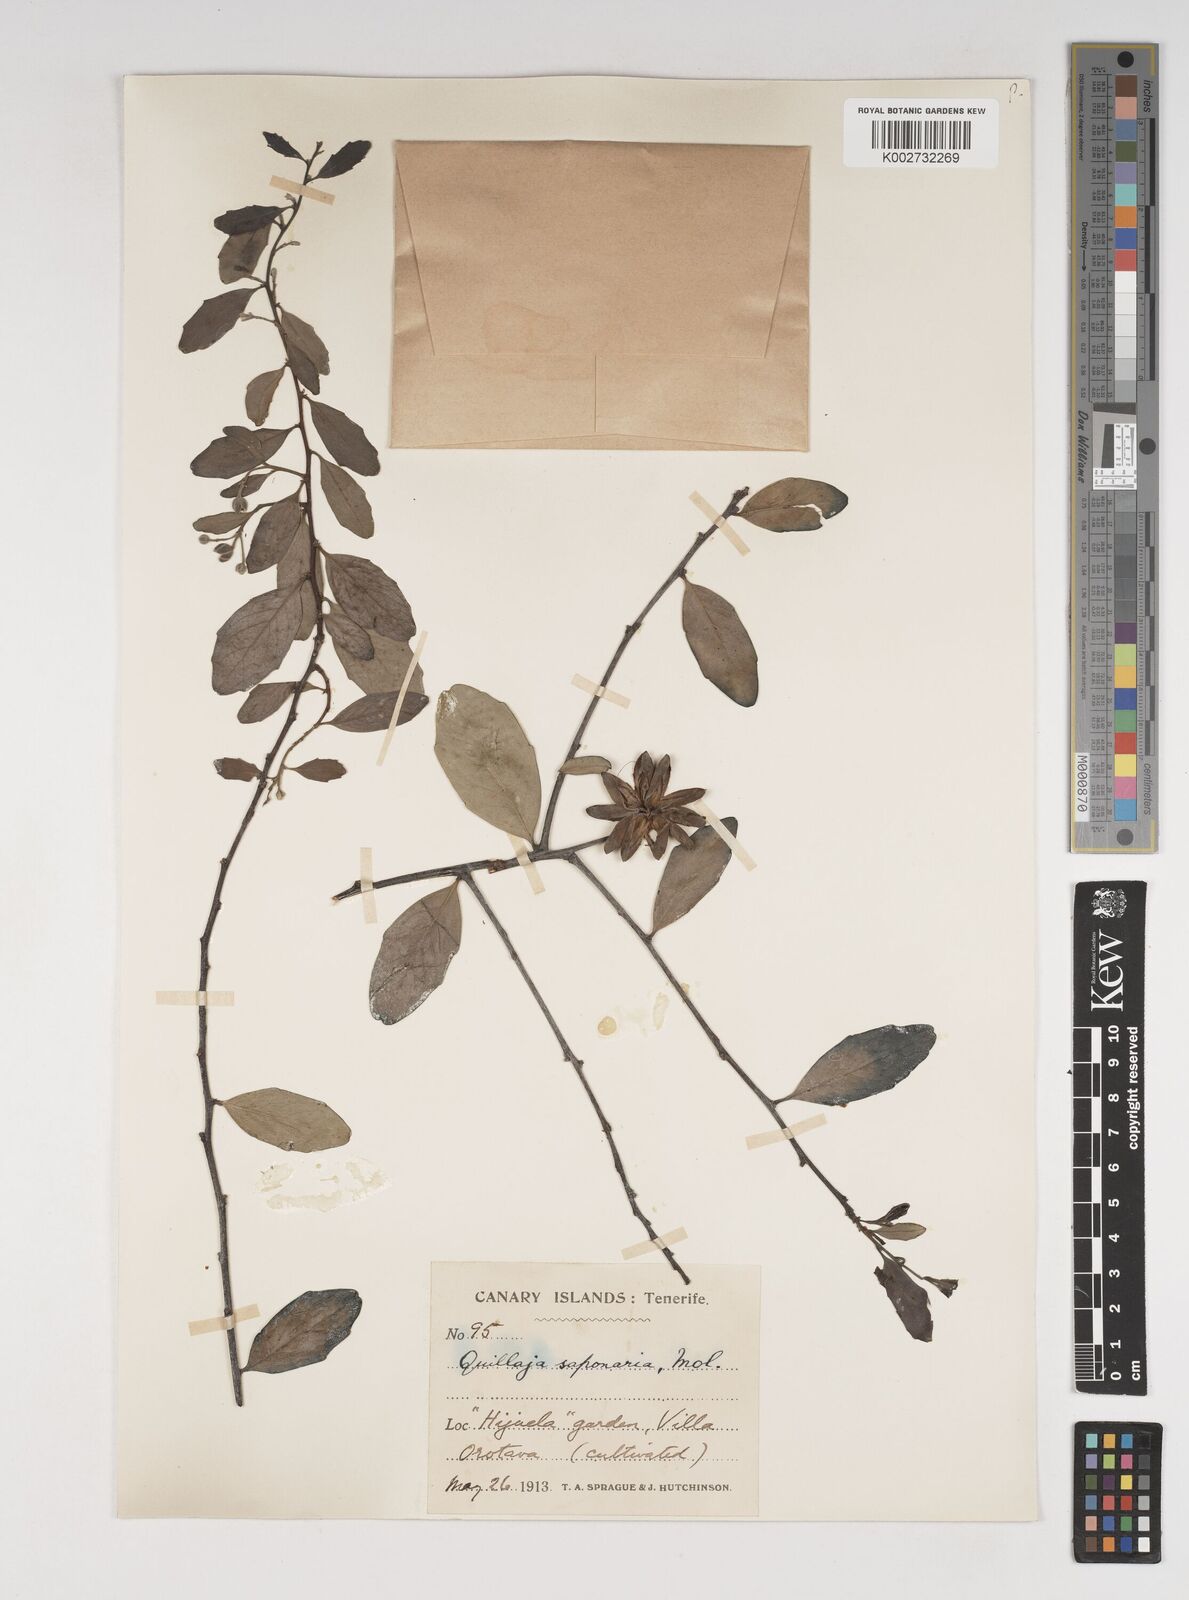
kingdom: Plantae
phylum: Tracheophyta
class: Magnoliopsida
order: Fabales
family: Quillajaceae
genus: Quillaja
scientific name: Quillaja saponaria
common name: Murillo's-bark
